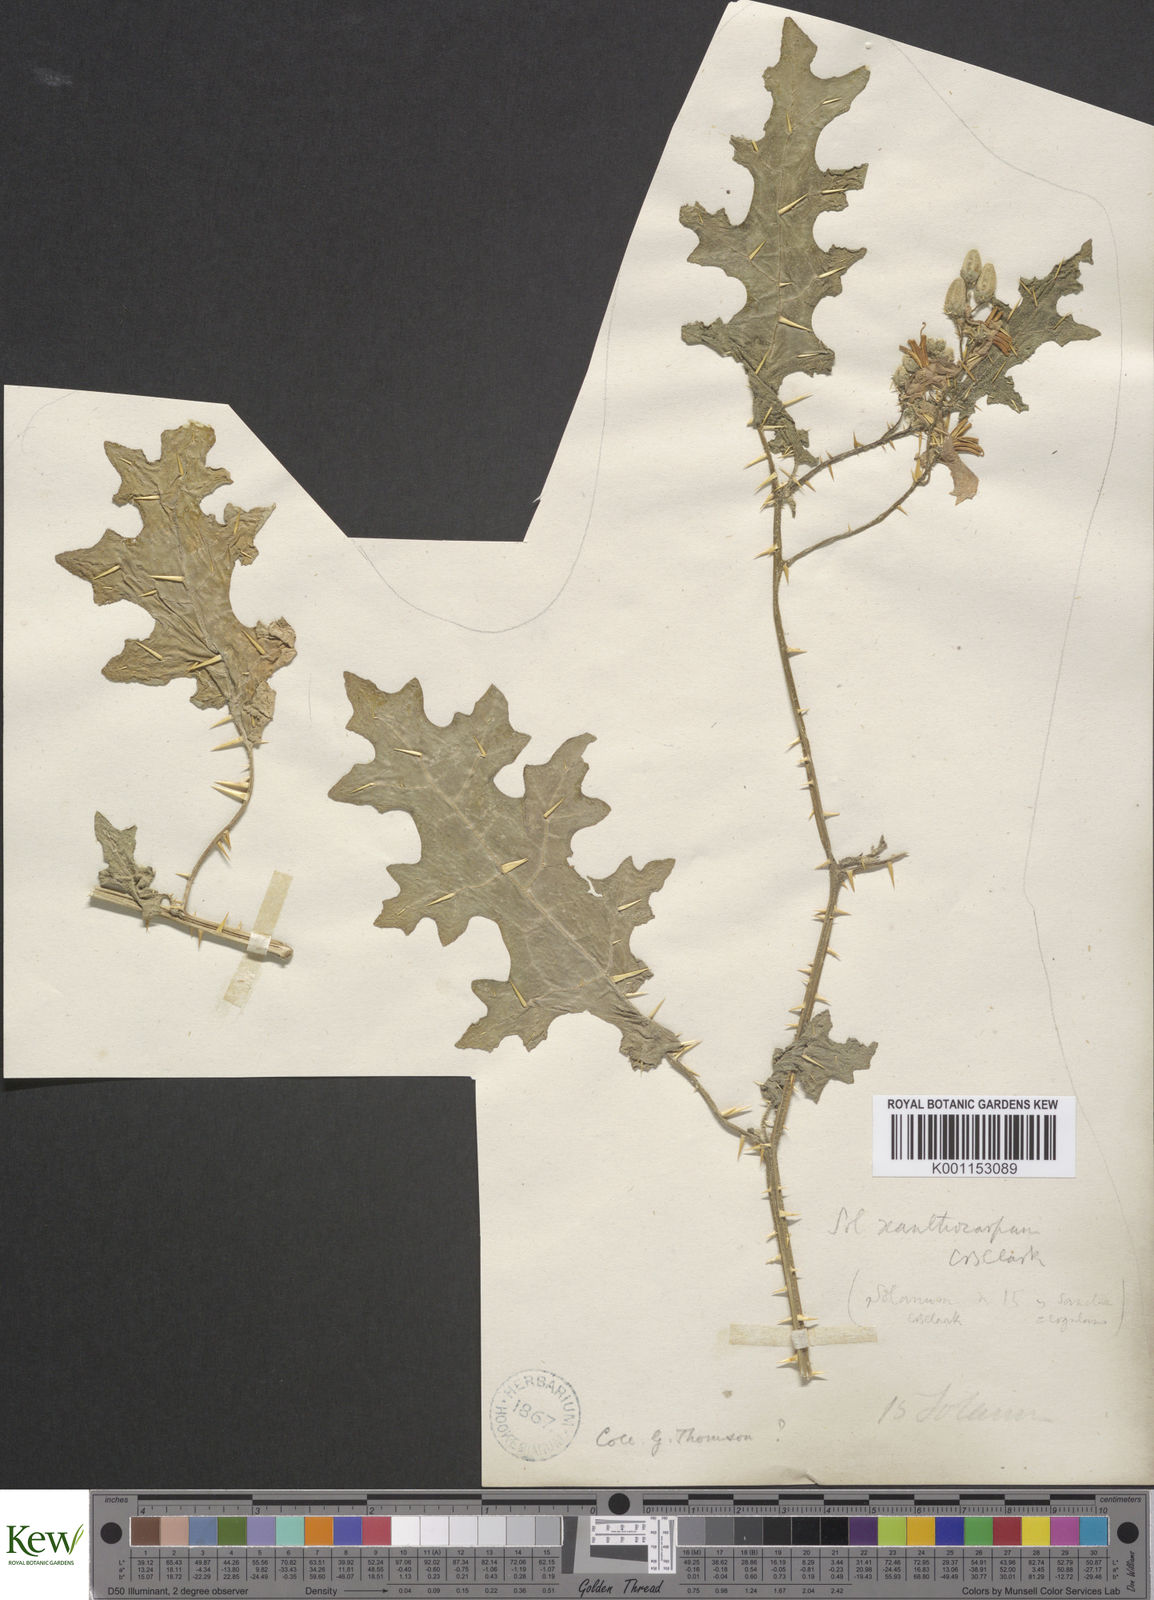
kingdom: Plantae
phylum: Tracheophyta
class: Magnoliopsida
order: Solanales
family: Solanaceae
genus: Solanum
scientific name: Solanum virginianum
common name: Surattense nightshade
